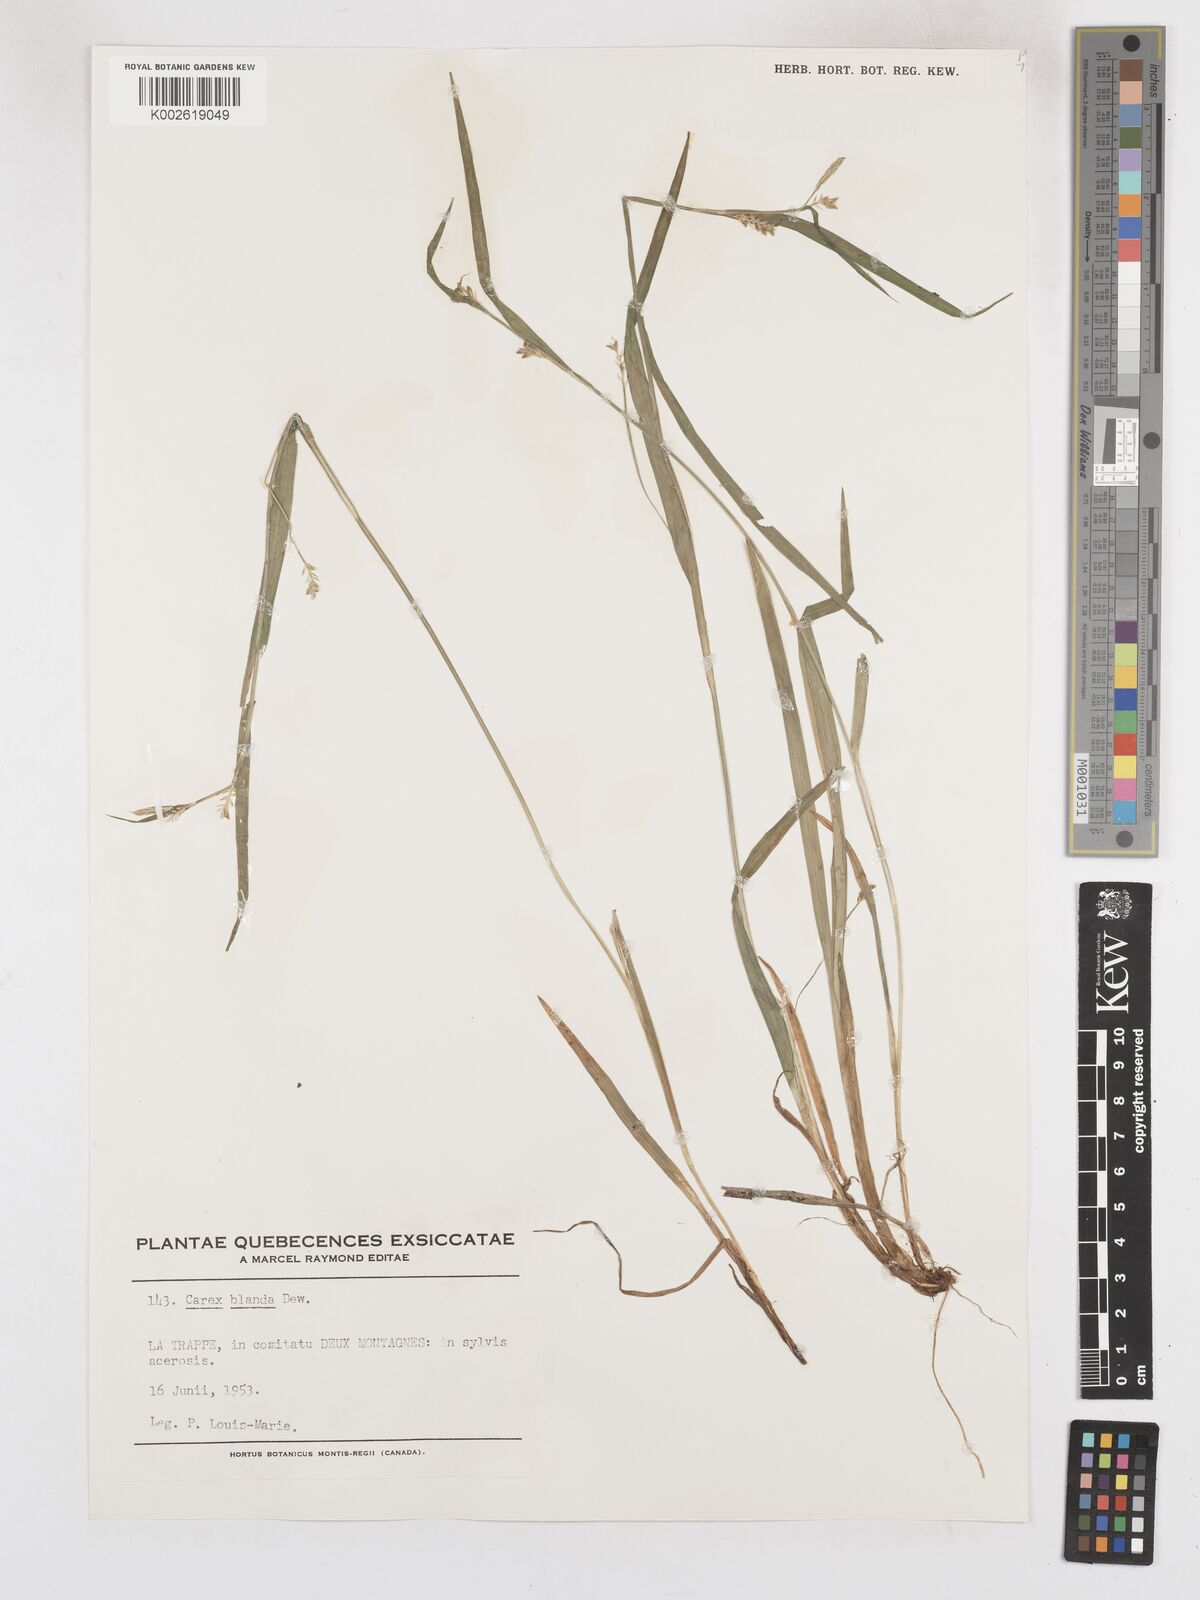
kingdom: Plantae
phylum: Tracheophyta
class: Liliopsida
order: Poales
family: Cyperaceae
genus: Carex
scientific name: Carex blanda
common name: Bland sedge
